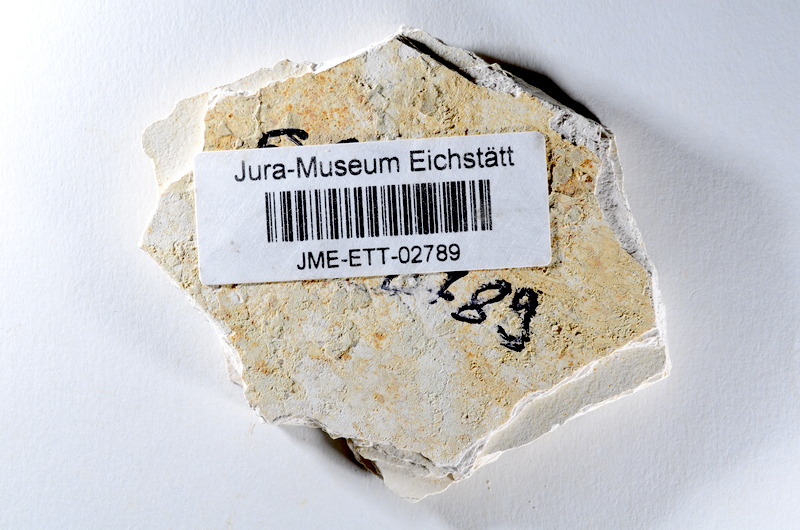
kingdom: Animalia
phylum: Chordata
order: Salmoniformes
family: Orthogonikleithridae
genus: Orthogonikleithrus
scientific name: Orthogonikleithrus hoelli
